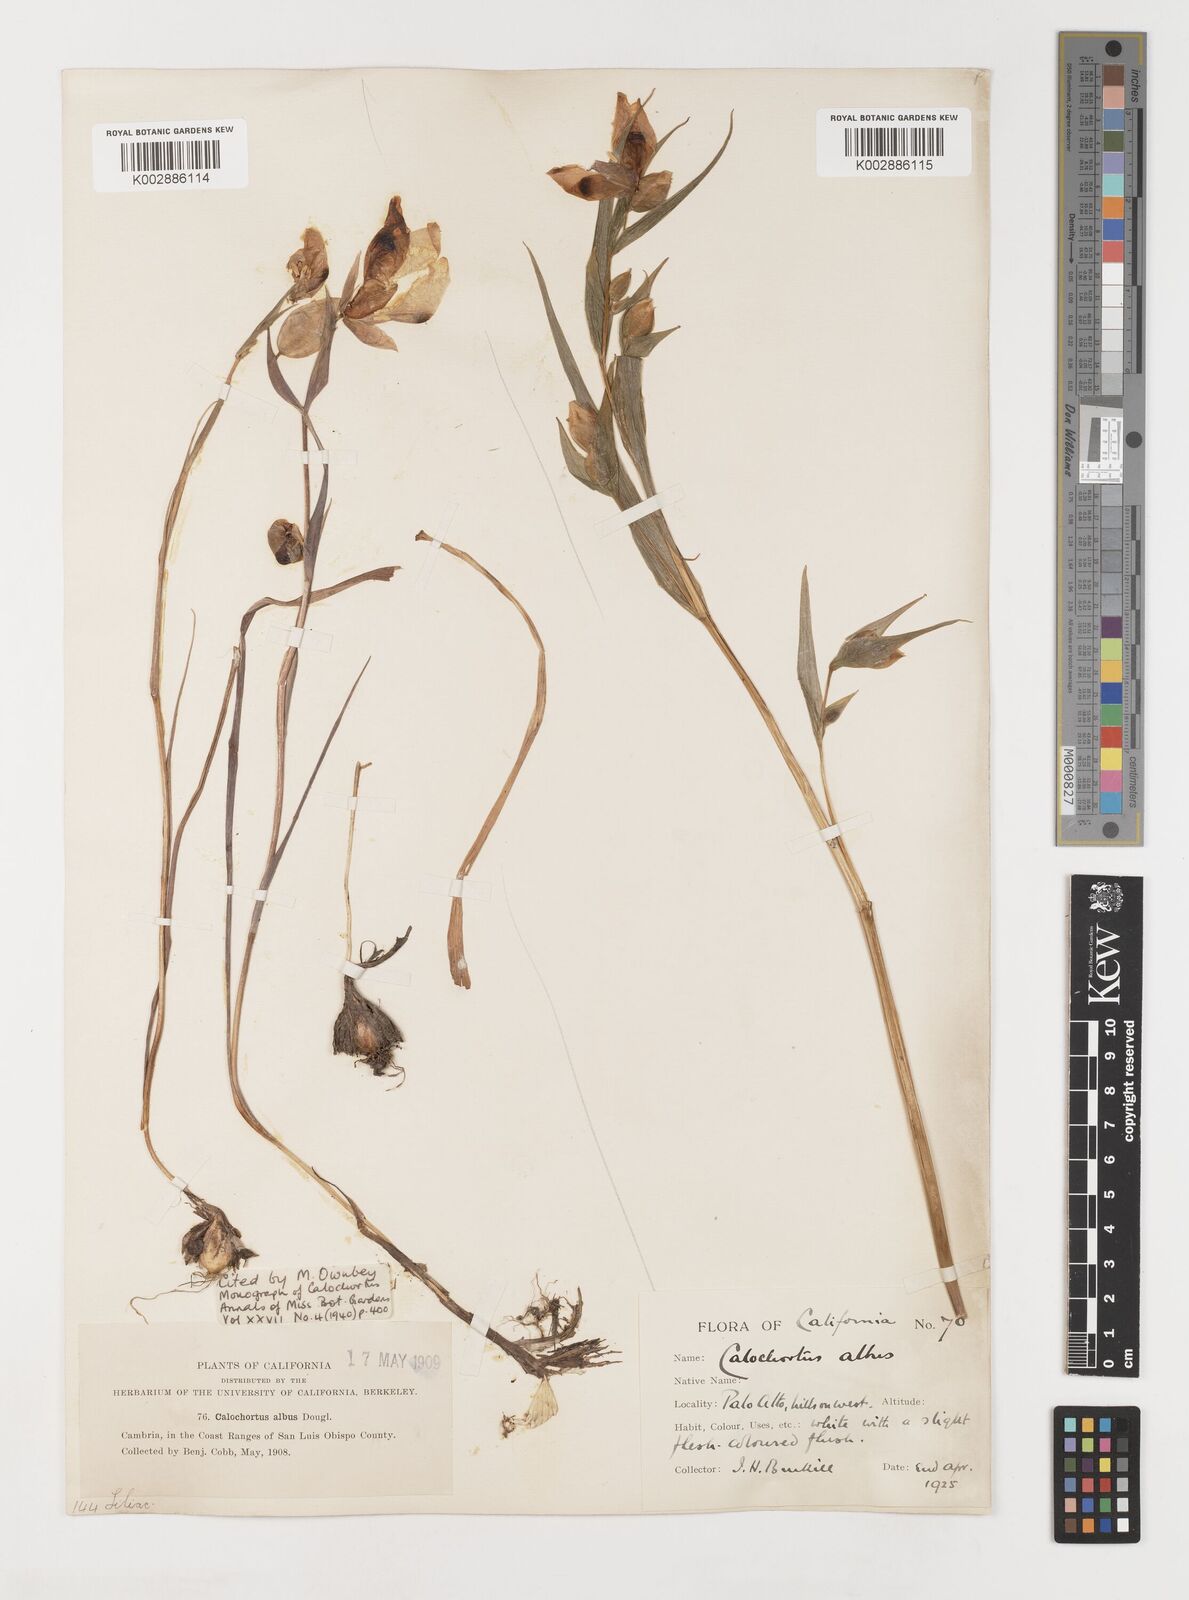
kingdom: Plantae
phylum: Tracheophyta
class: Liliopsida
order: Liliales
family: Liliaceae
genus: Calochortus
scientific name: Calochortus albus
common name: Fairy-lantern
